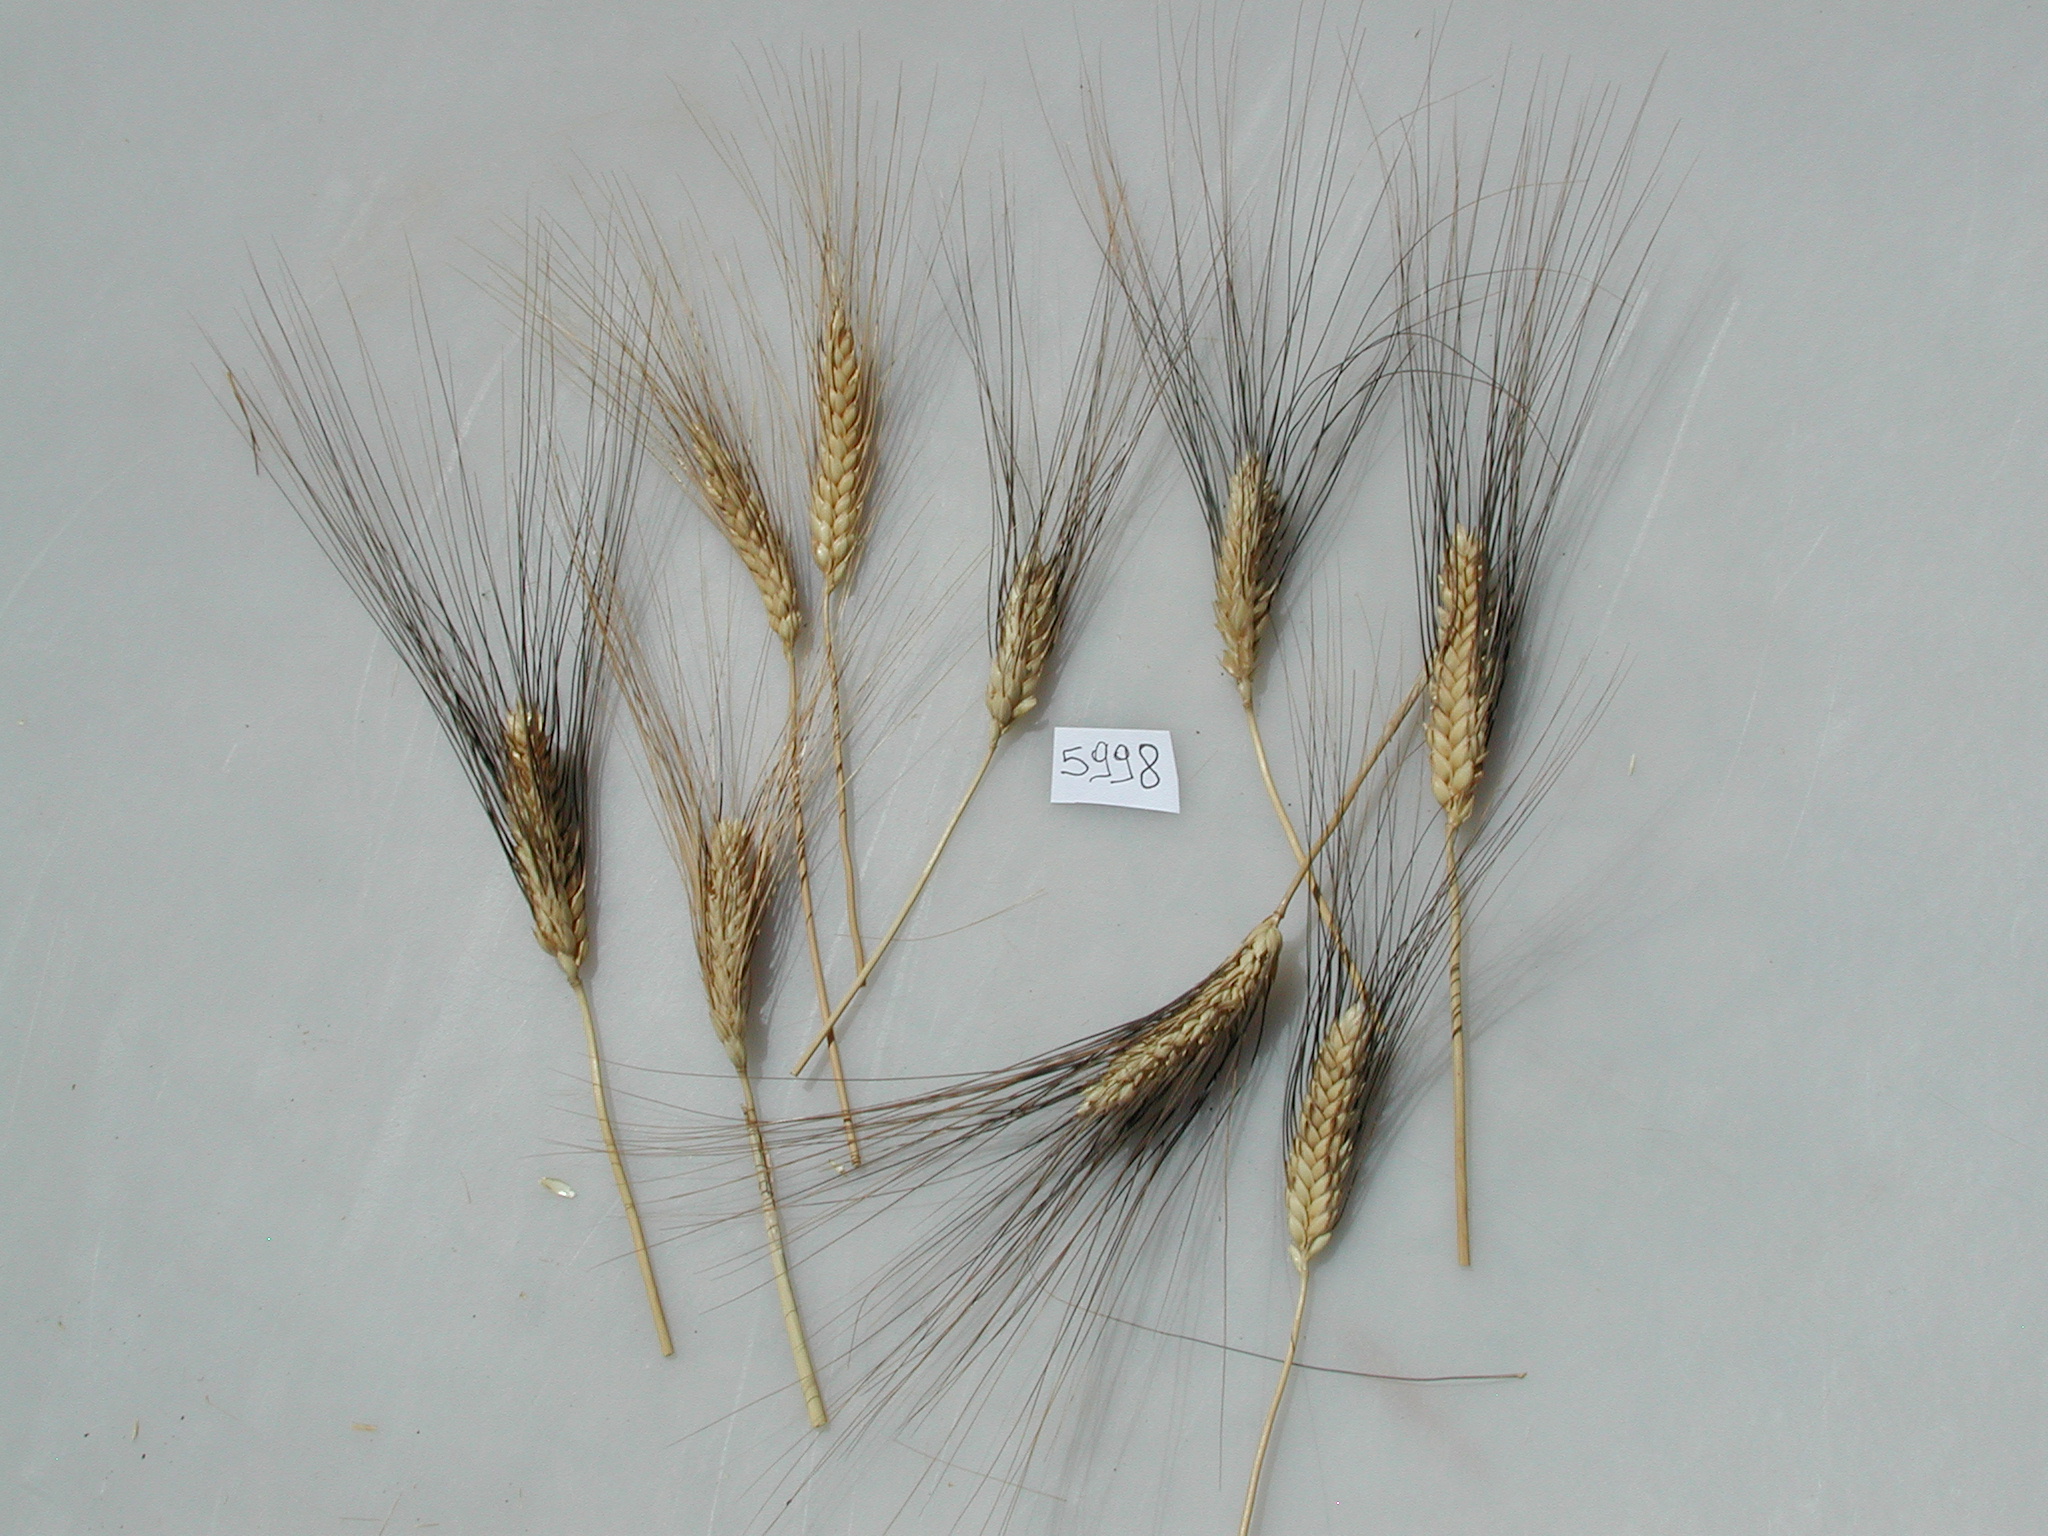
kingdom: Plantae
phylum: Tracheophyta
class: Liliopsida
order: Poales
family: Poaceae
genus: Triticum
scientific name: Triticum turgidum
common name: Wheat
